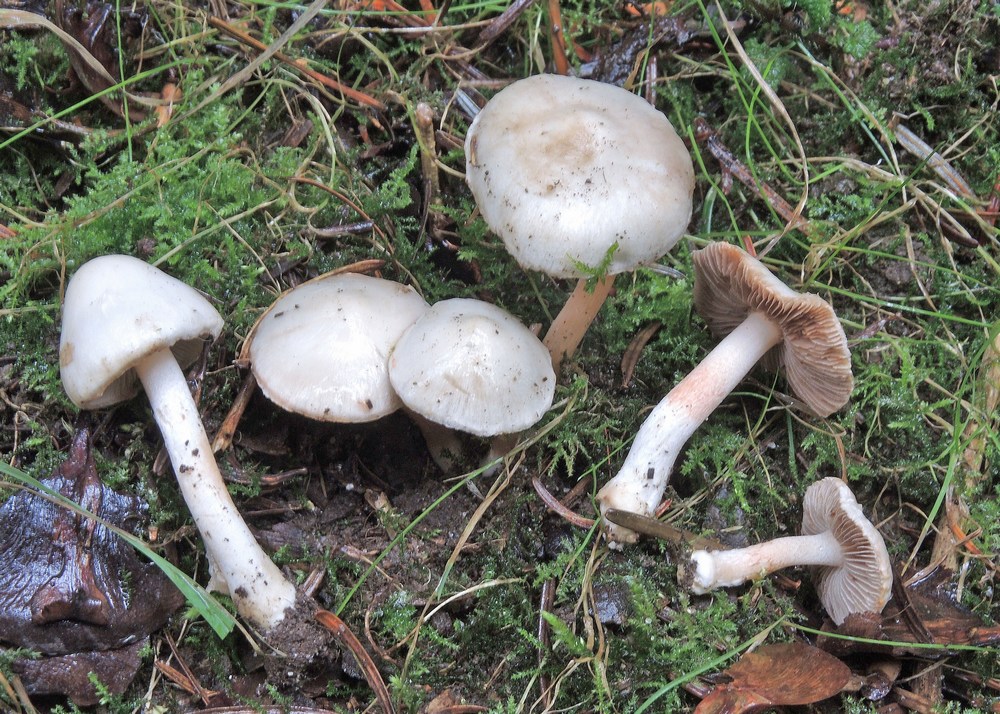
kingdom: Fungi
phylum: Basidiomycota
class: Agaricomycetes
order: Agaricales
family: Inocybaceae
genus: Inocybe
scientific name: Inocybe
